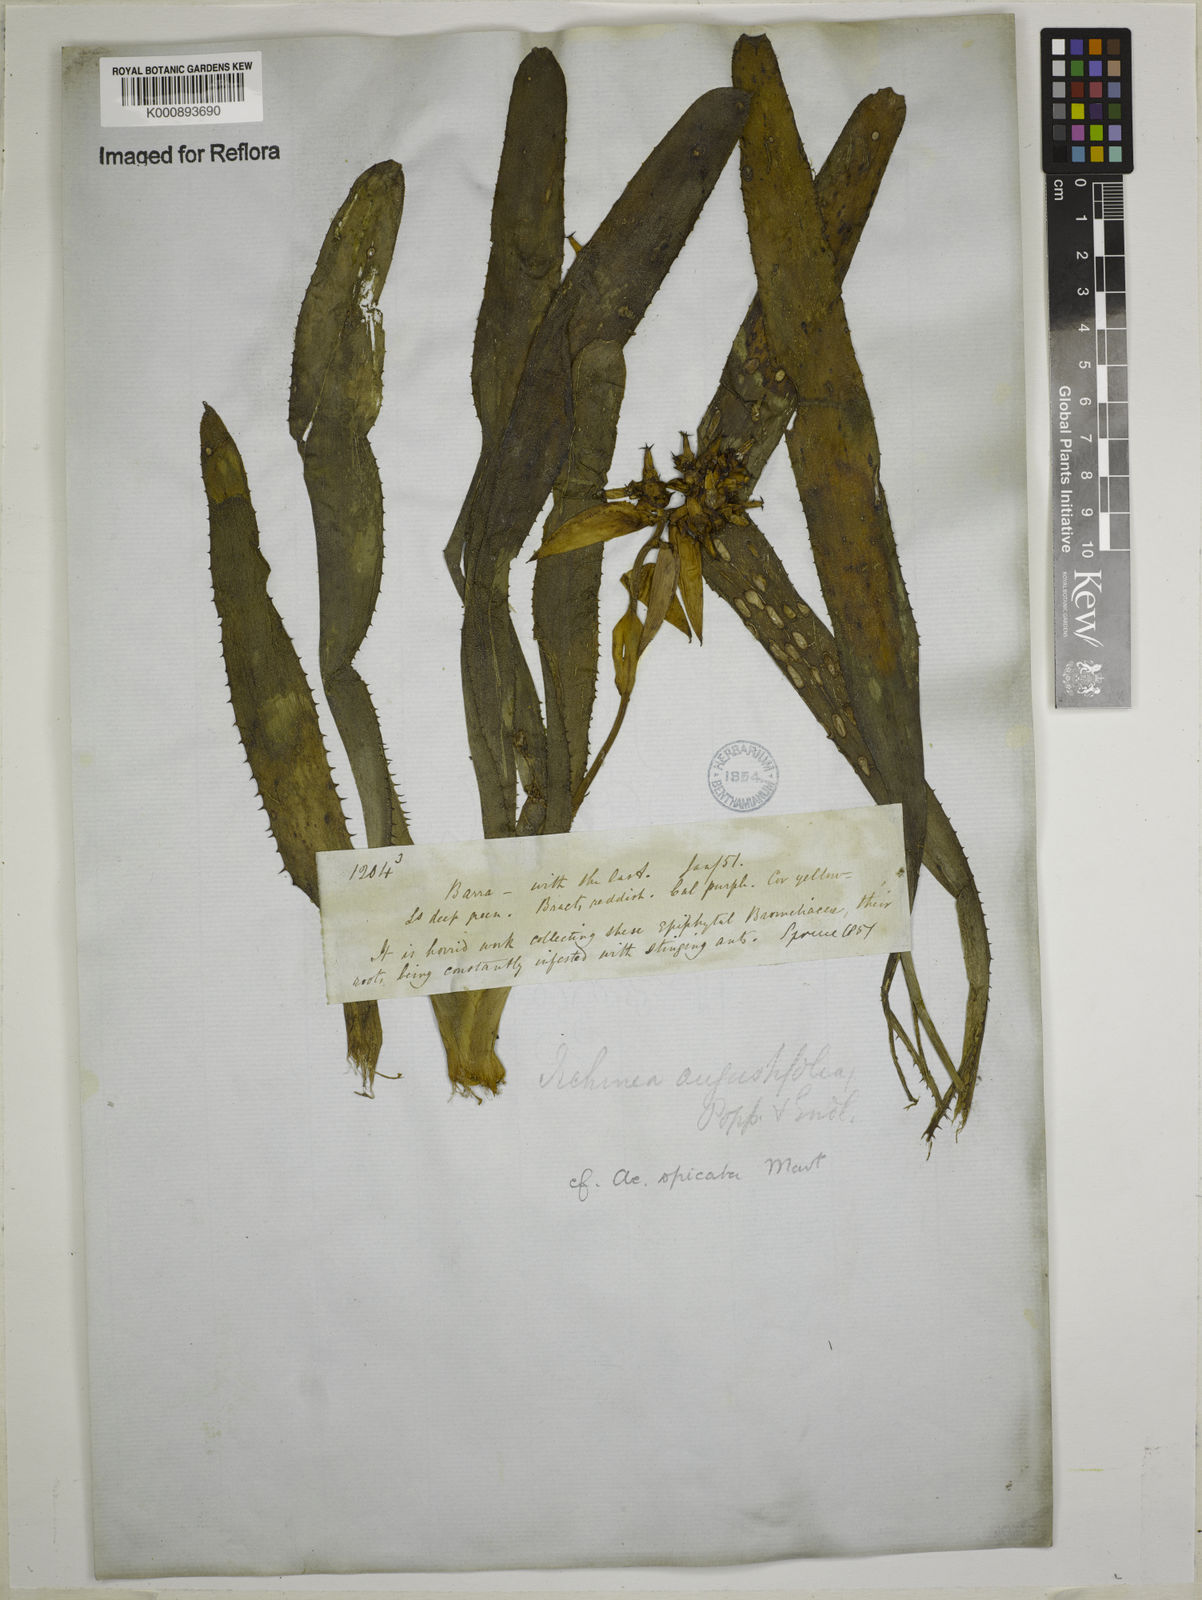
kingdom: Plantae
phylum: Tracheophyta
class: Liliopsida
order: Poales
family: Bromeliaceae
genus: Aechmea
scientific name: Aechmea mertensii
